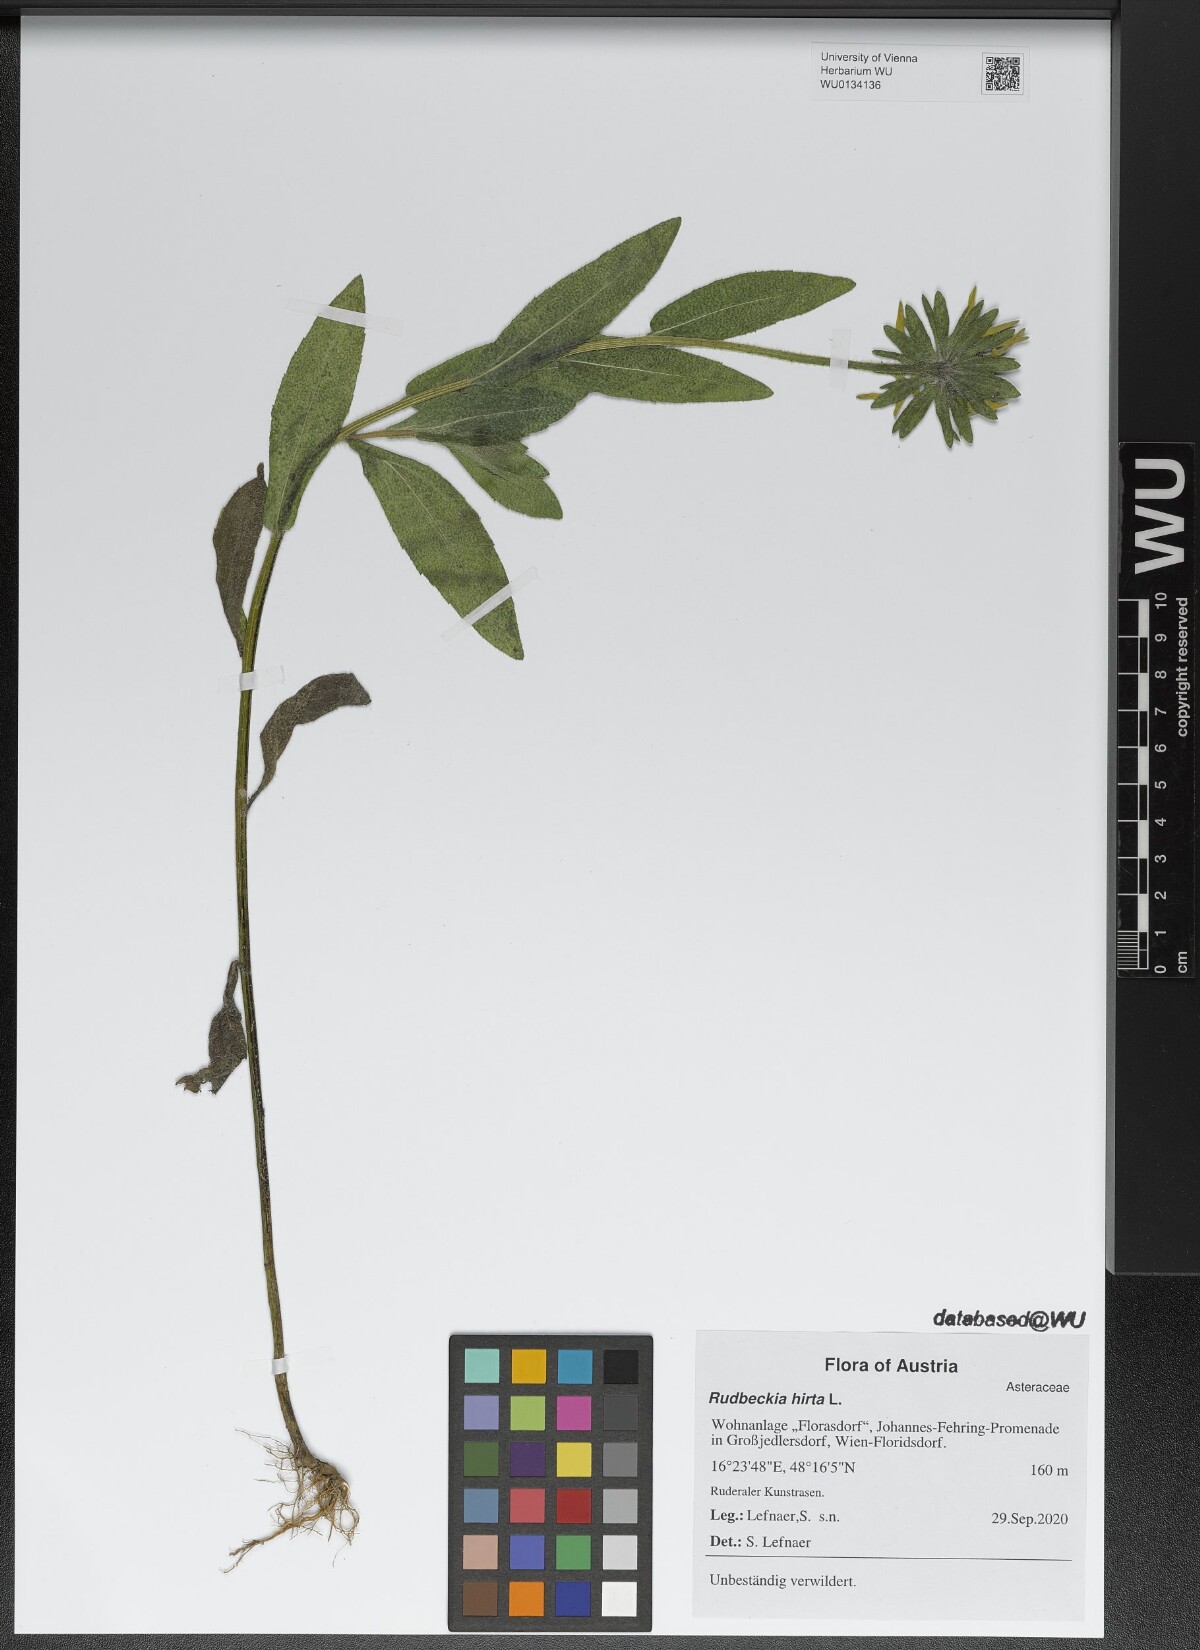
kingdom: Plantae
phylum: Tracheophyta
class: Magnoliopsida
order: Asterales
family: Asteraceae
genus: Rudbeckia
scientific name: Rudbeckia hirta
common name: Black-eyed-susan
